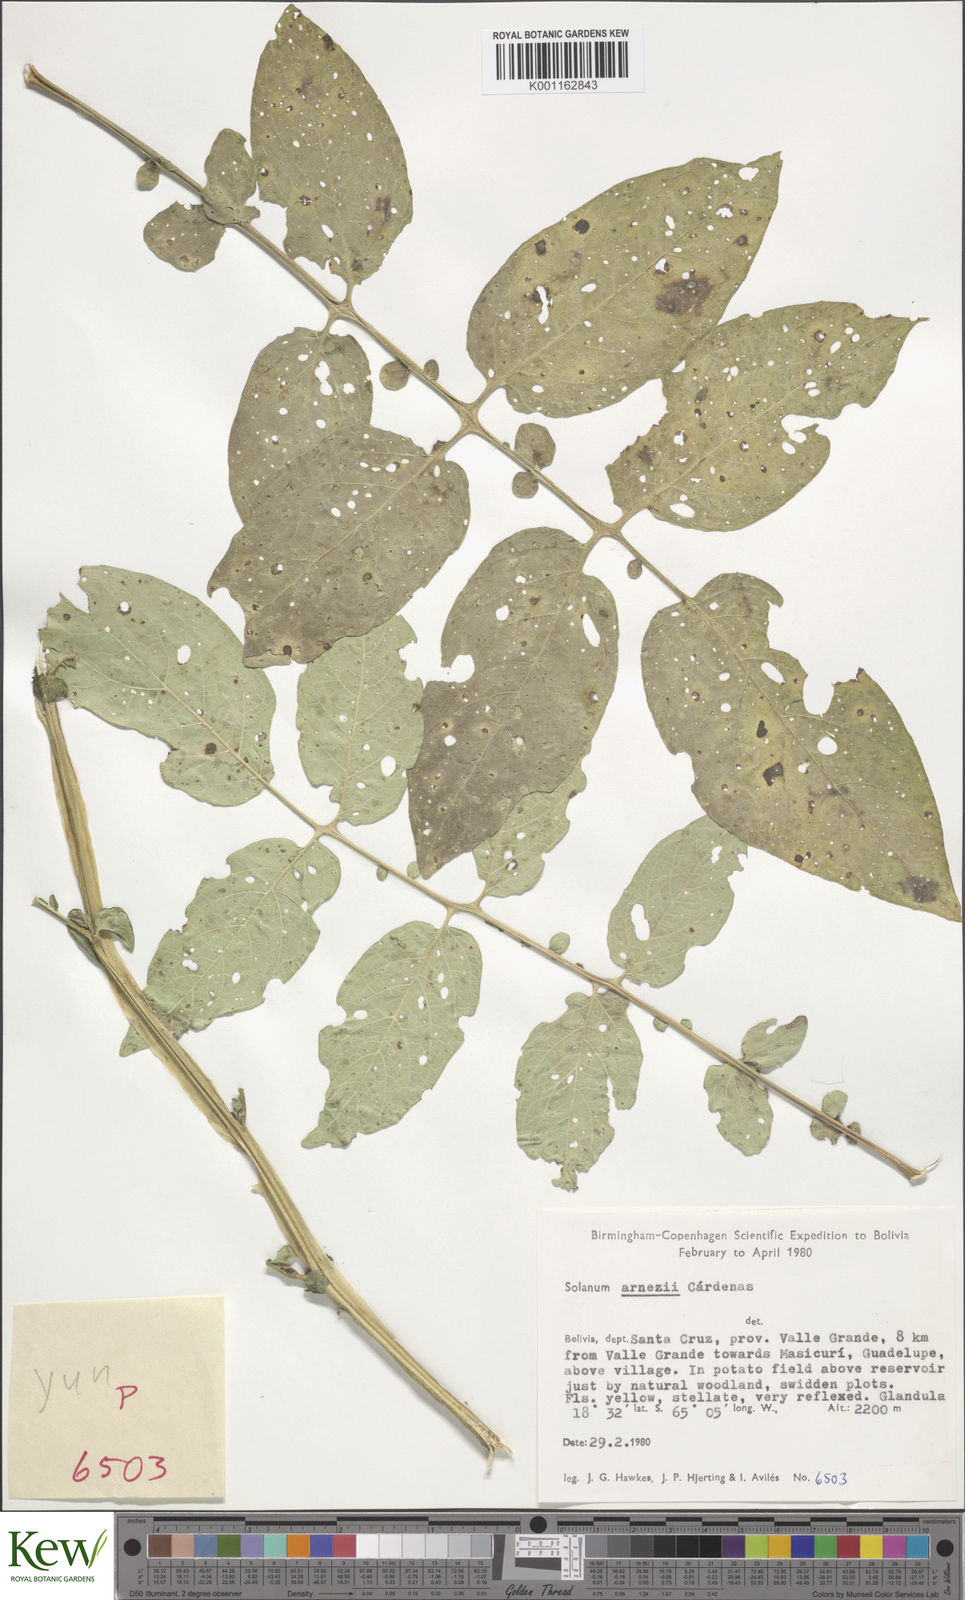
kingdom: Plantae
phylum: Tracheophyta
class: Magnoliopsida
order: Solanales
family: Solanaceae
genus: Solanum
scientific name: Solanum
